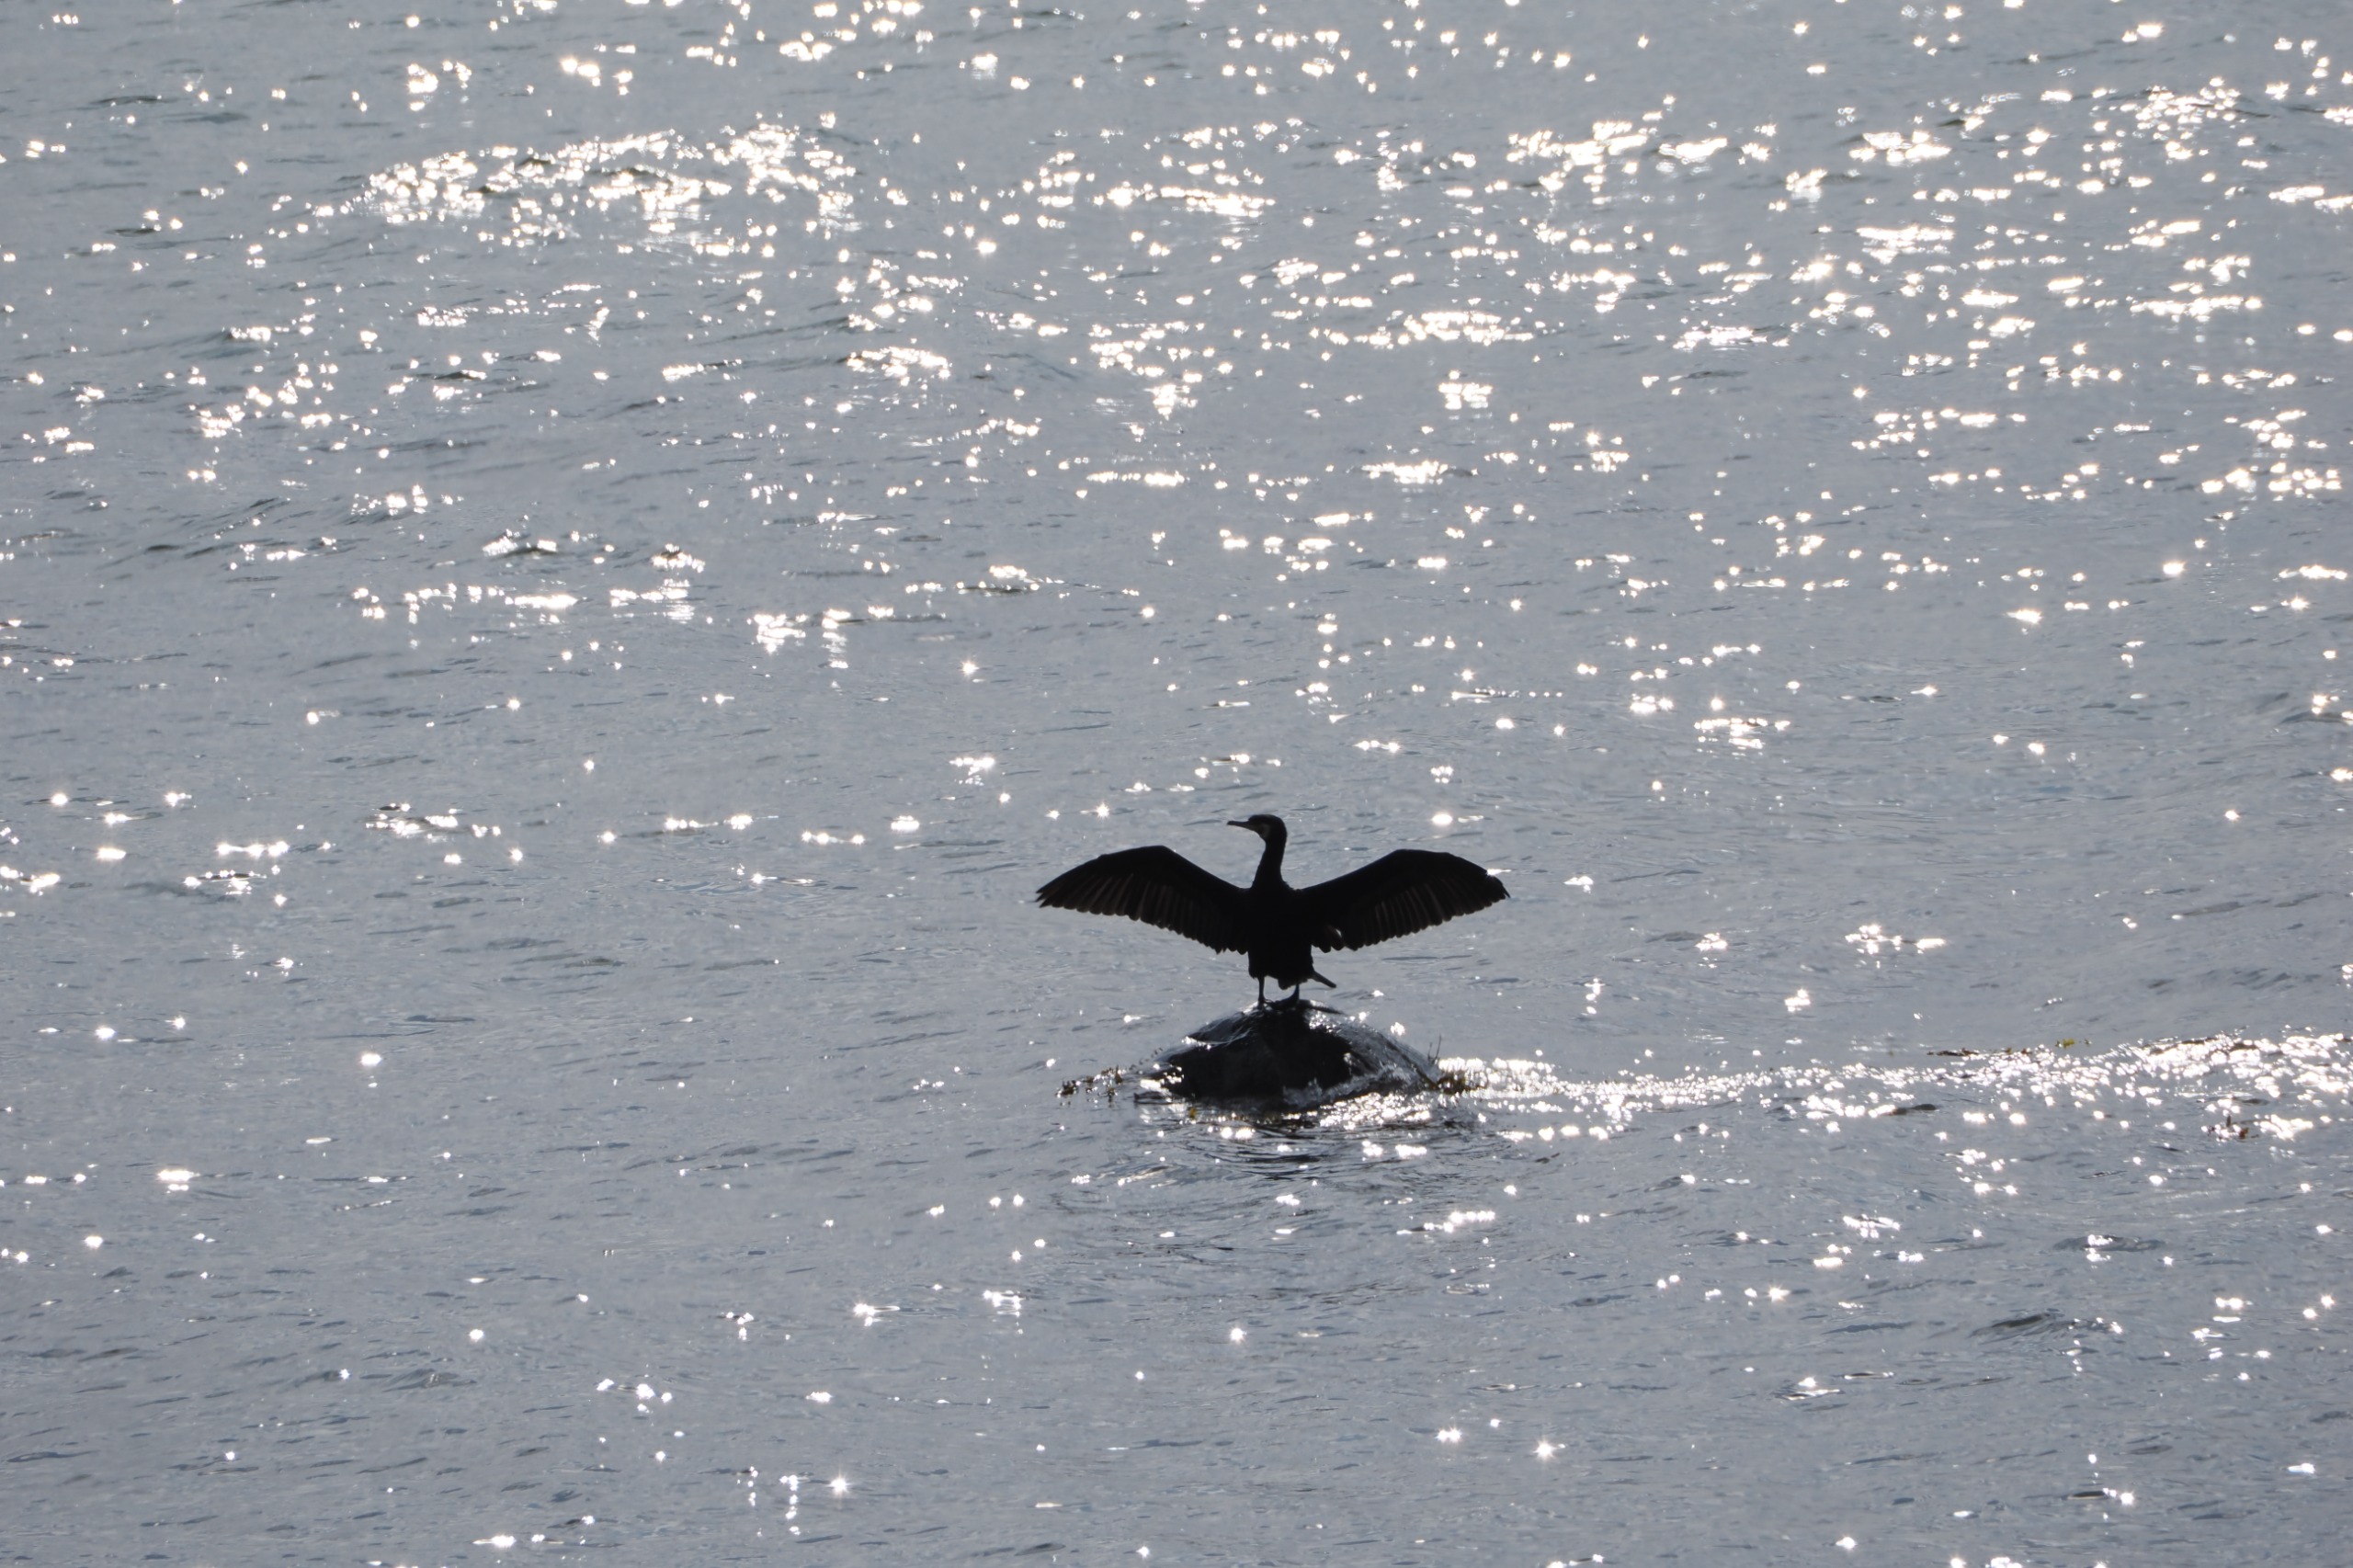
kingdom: Animalia
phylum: Chordata
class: Aves
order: Suliformes
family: Phalacrocoracidae
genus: Phalacrocorax
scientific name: Phalacrocorax carbo
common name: Skarv
